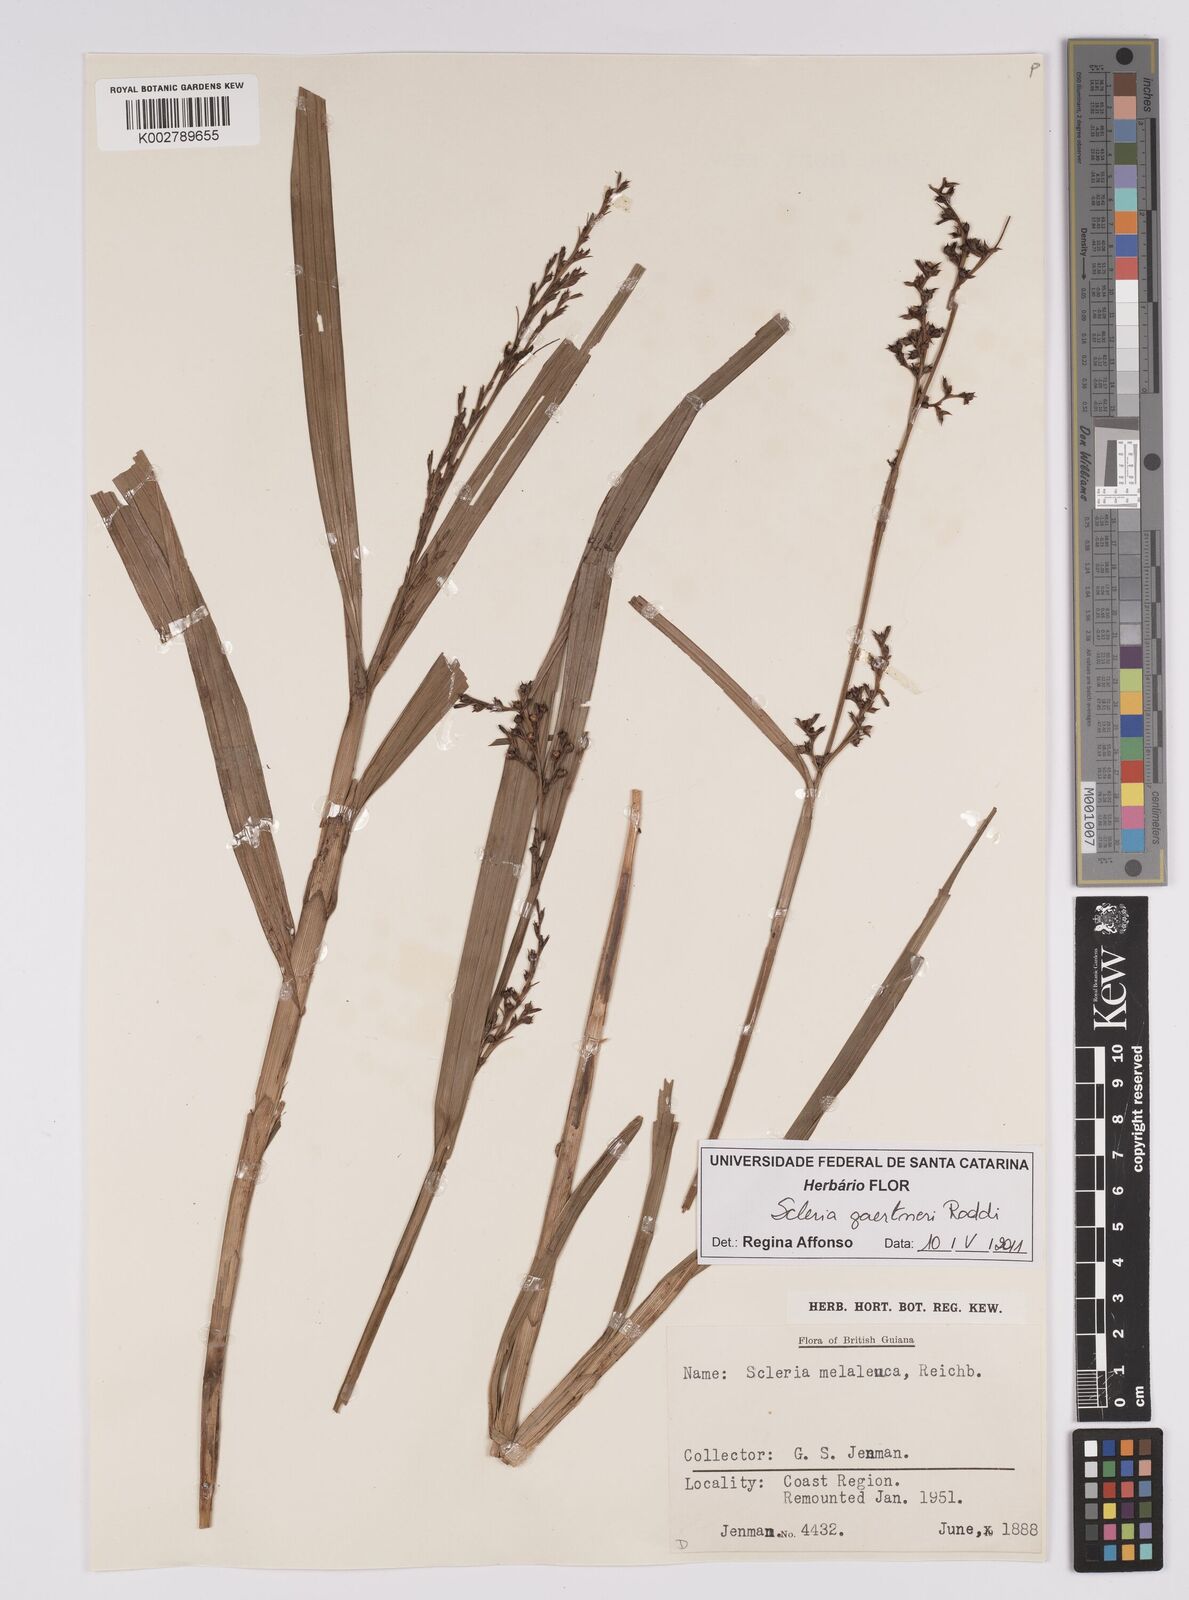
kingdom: Plantae
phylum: Tracheophyta
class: Liliopsida
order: Poales
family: Cyperaceae
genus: Scleria
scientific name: Scleria gaertneri
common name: Cortadera blanca
